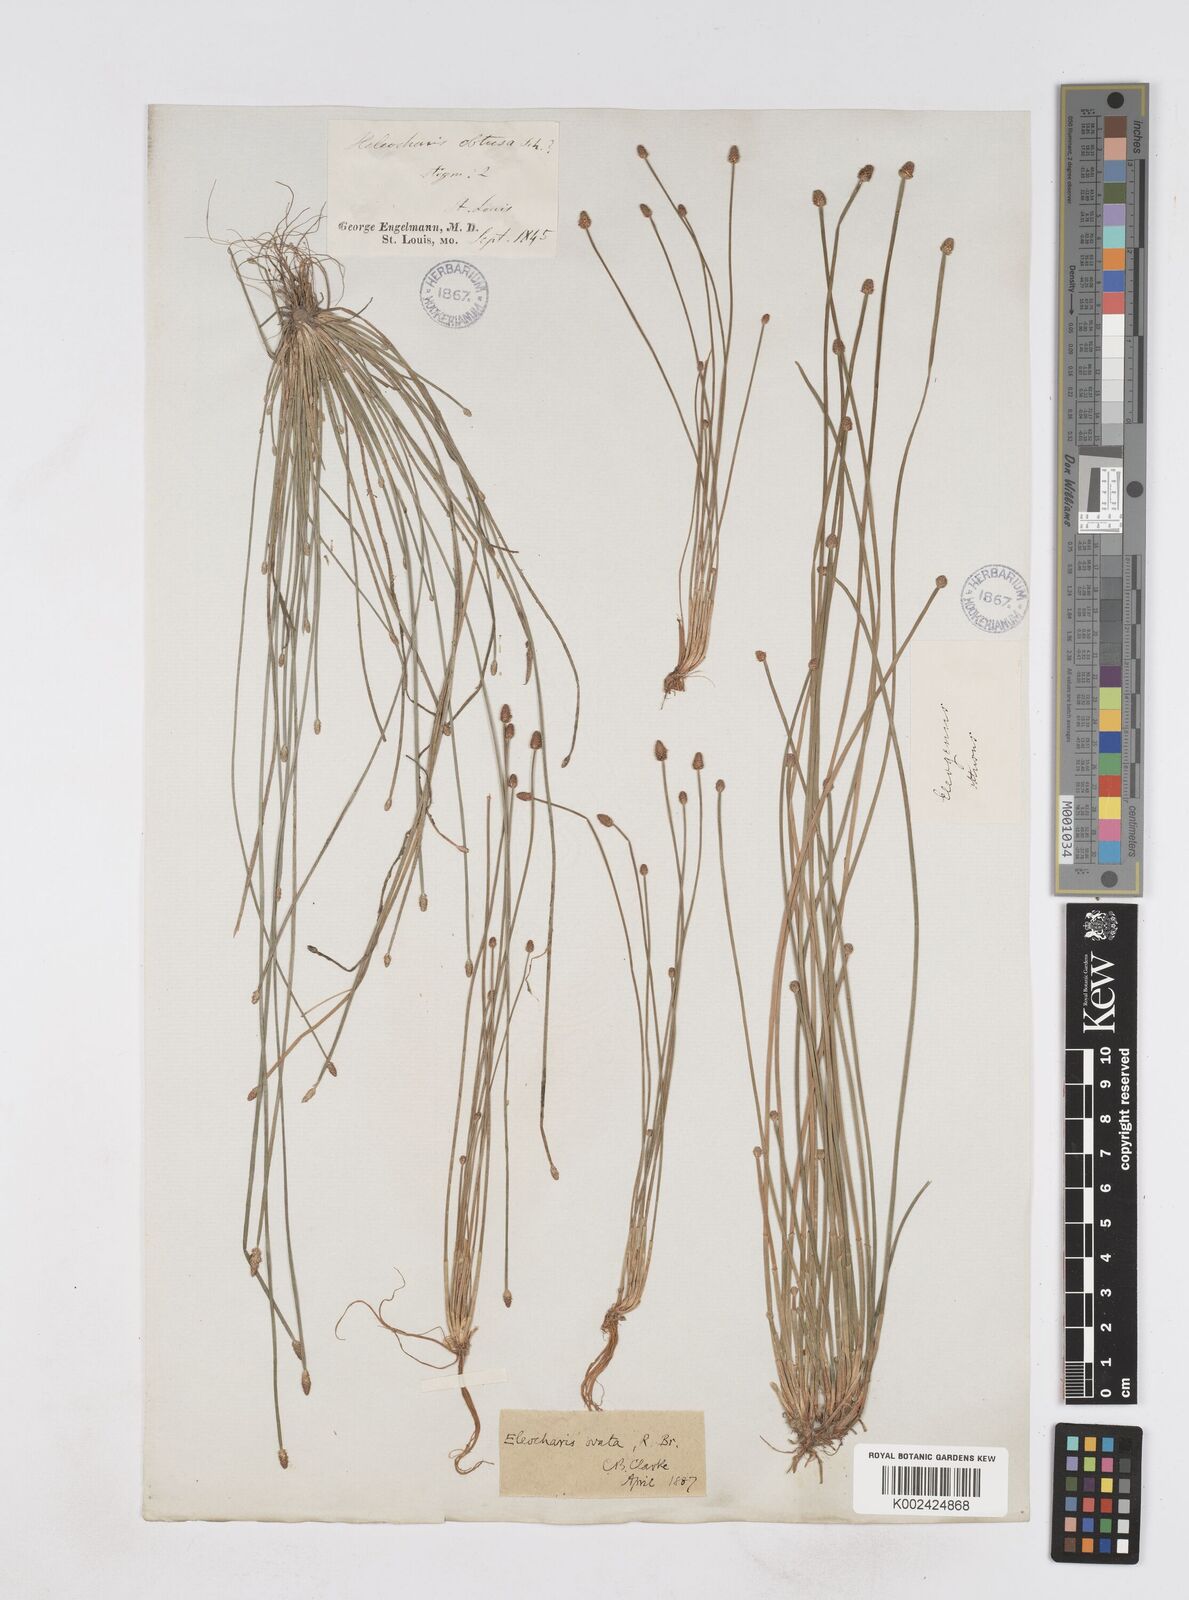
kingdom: Plantae
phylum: Tracheophyta
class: Liliopsida
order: Poales
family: Cyperaceae
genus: Eleocharis
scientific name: Eleocharis obtusa
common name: Blunt spikerush
